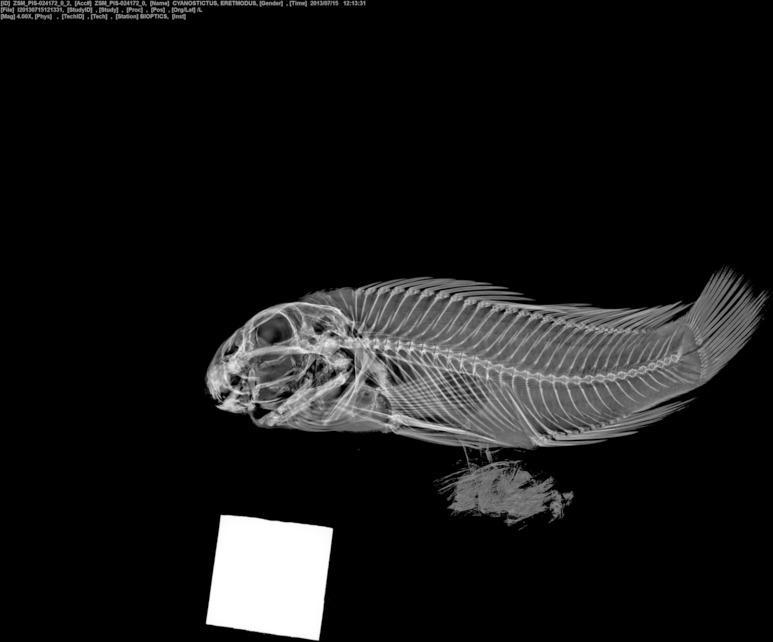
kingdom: Animalia
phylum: Chordata
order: Perciformes
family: Cichlidae
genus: Eretmodus
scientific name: Eretmodus cyanostictus
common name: Tanganyika clown
